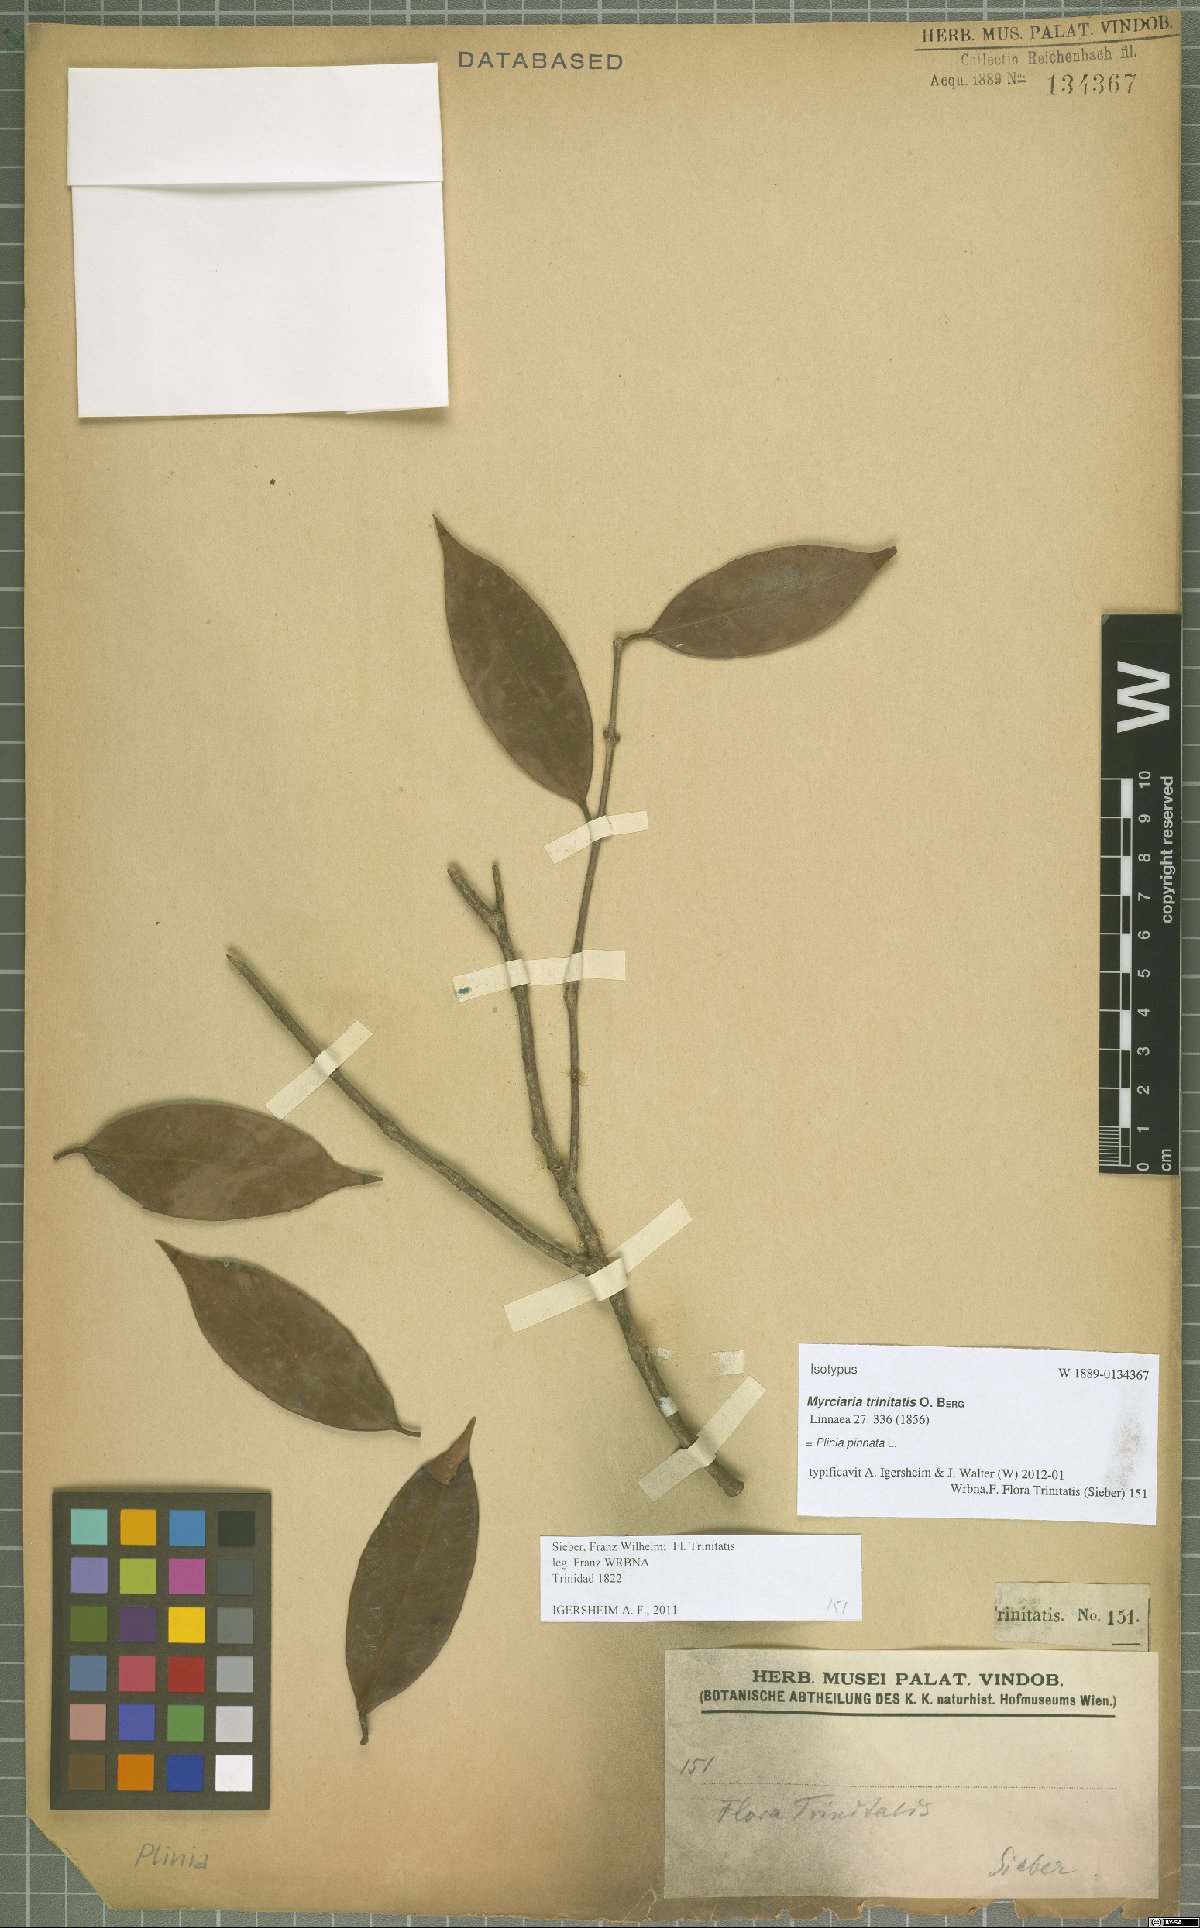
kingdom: Plantae
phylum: Tracheophyta
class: Magnoliopsida
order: Myrtales
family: Myrtaceae
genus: Plinia
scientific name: Plinia pinnata
